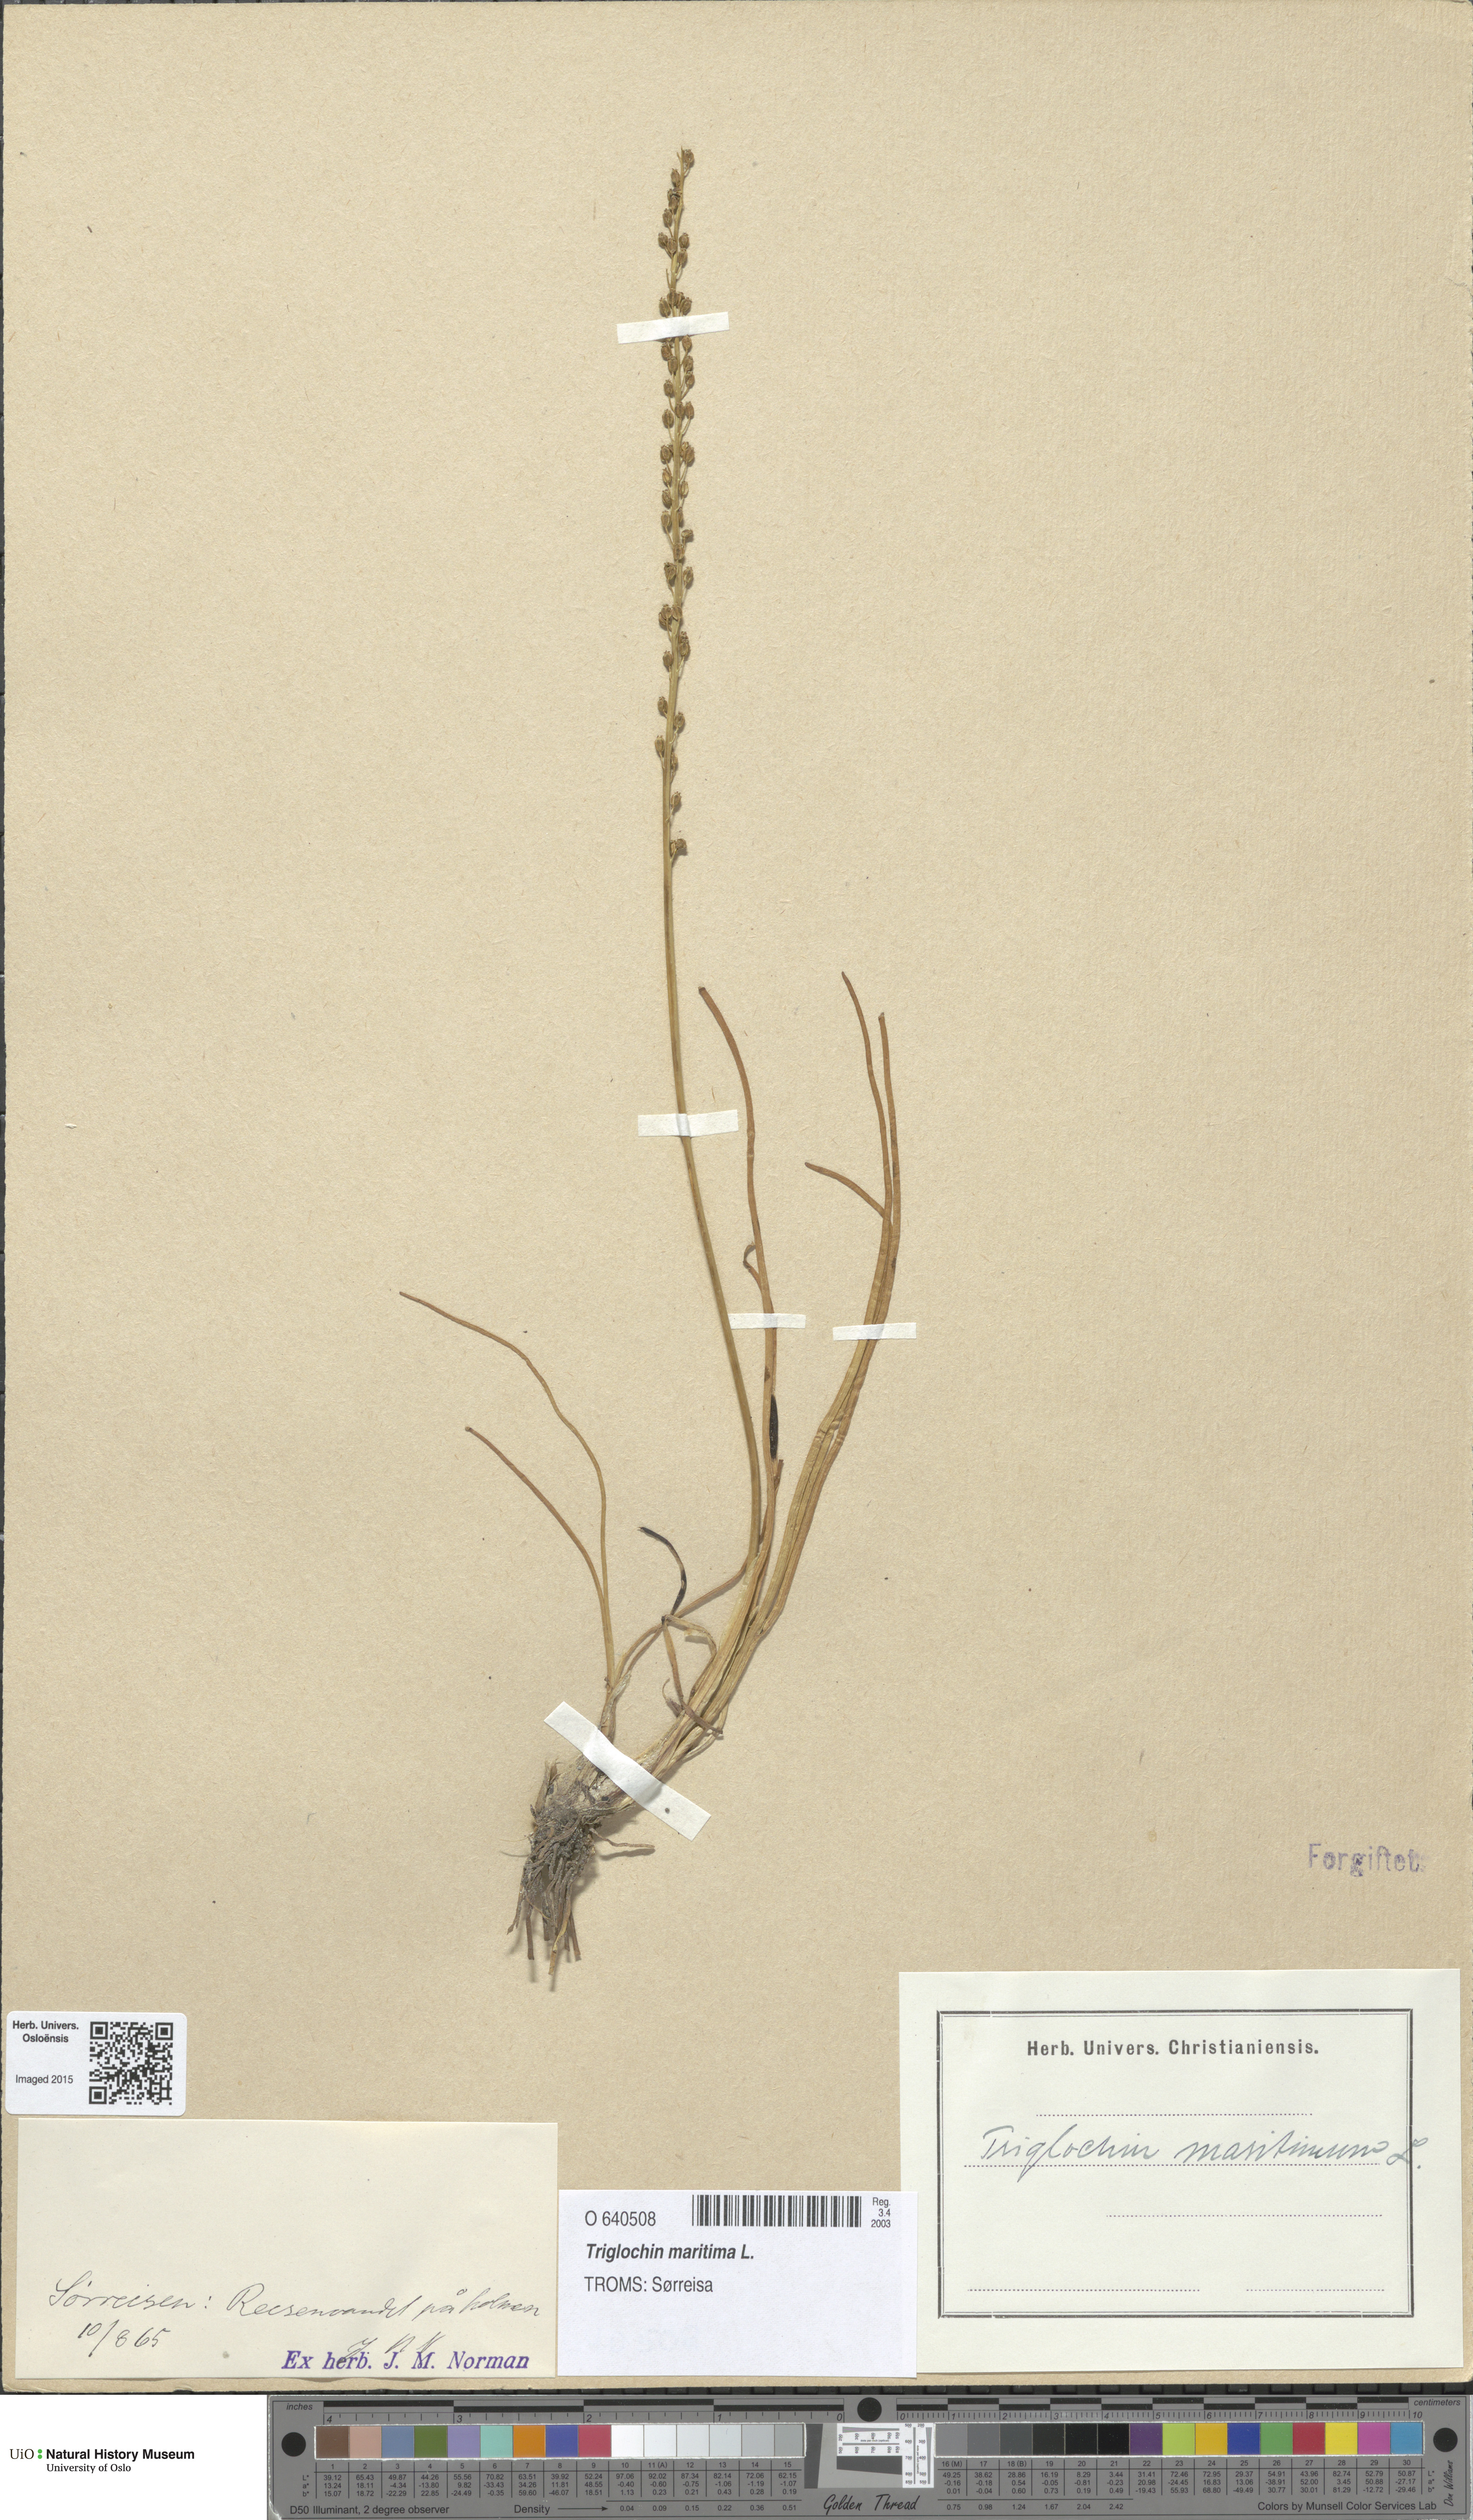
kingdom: Plantae
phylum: Tracheophyta
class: Liliopsida
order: Alismatales
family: Juncaginaceae
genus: Triglochin
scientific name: Triglochin maritima
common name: Sea arrowgrass
